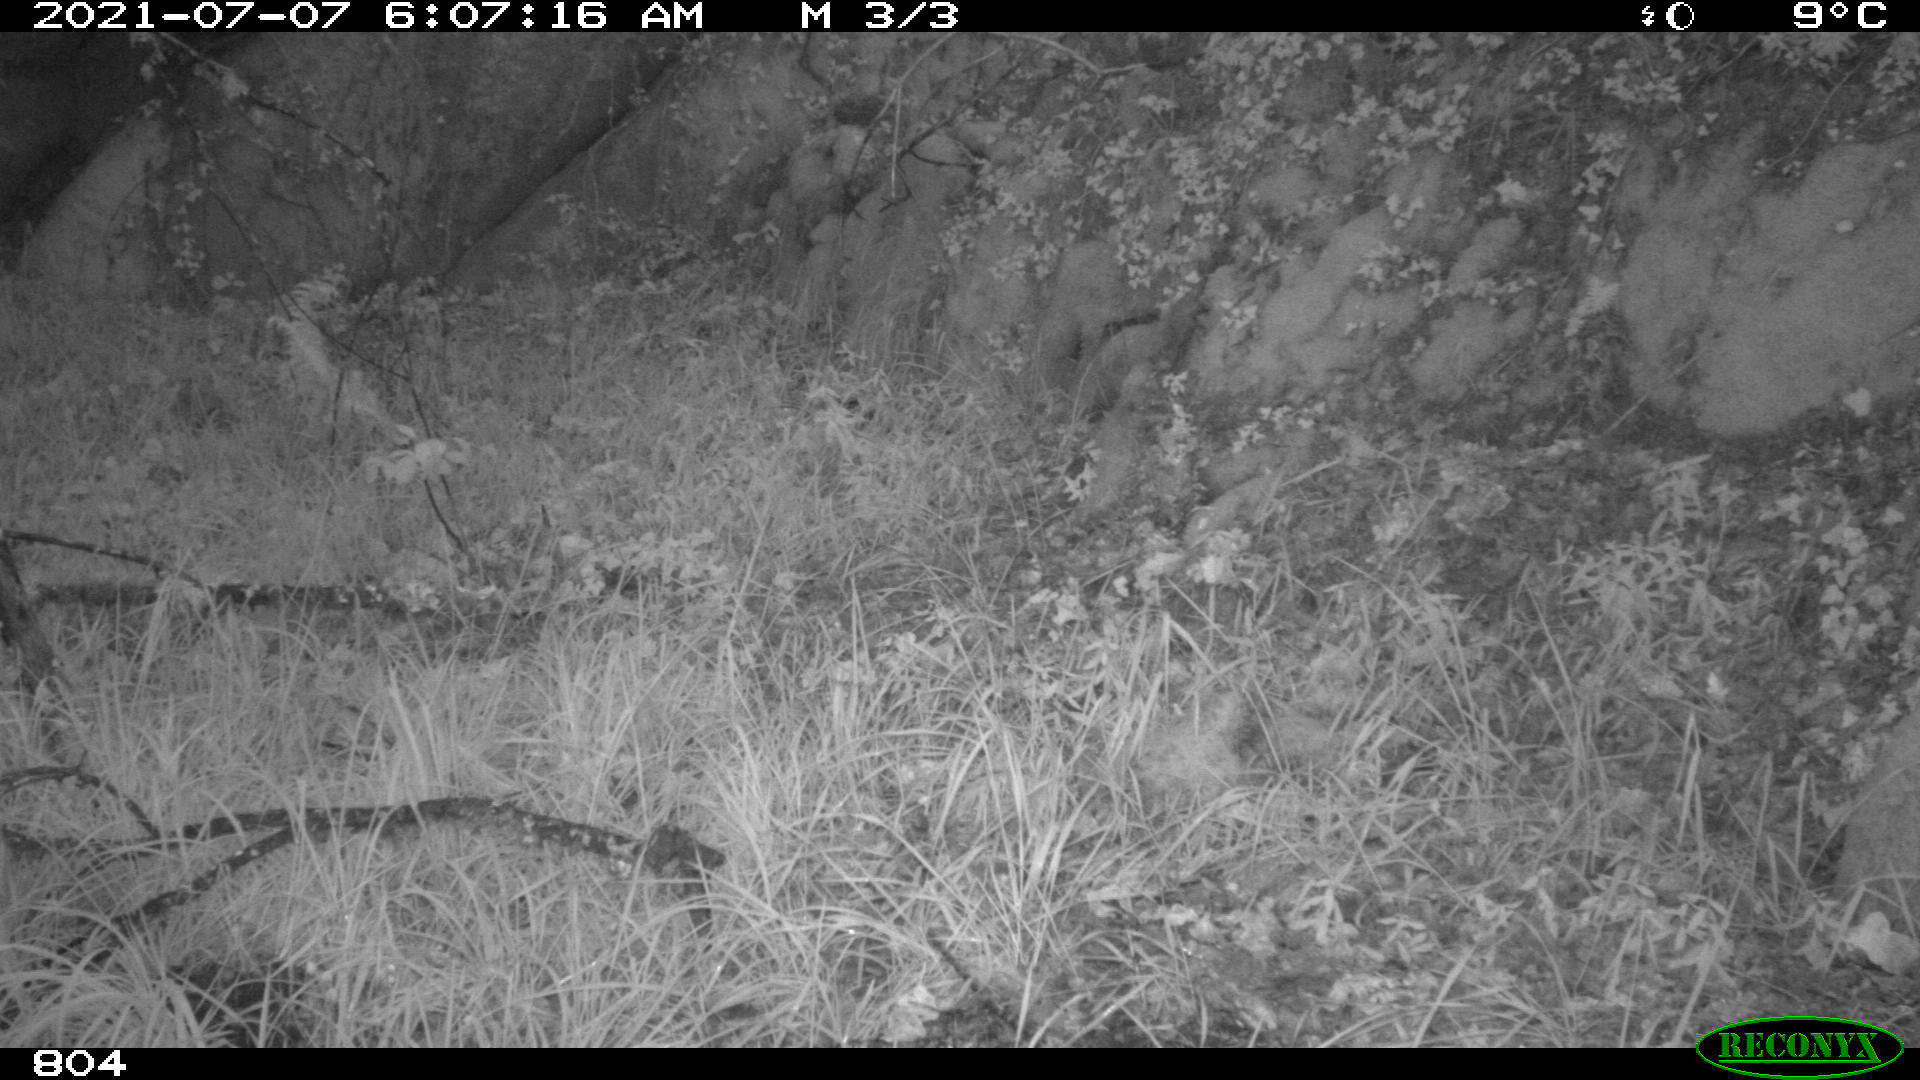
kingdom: Animalia
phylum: Chordata
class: Mammalia
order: Artiodactyla
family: Cervidae
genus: Capreolus
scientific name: Capreolus capreolus
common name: Western roe deer
